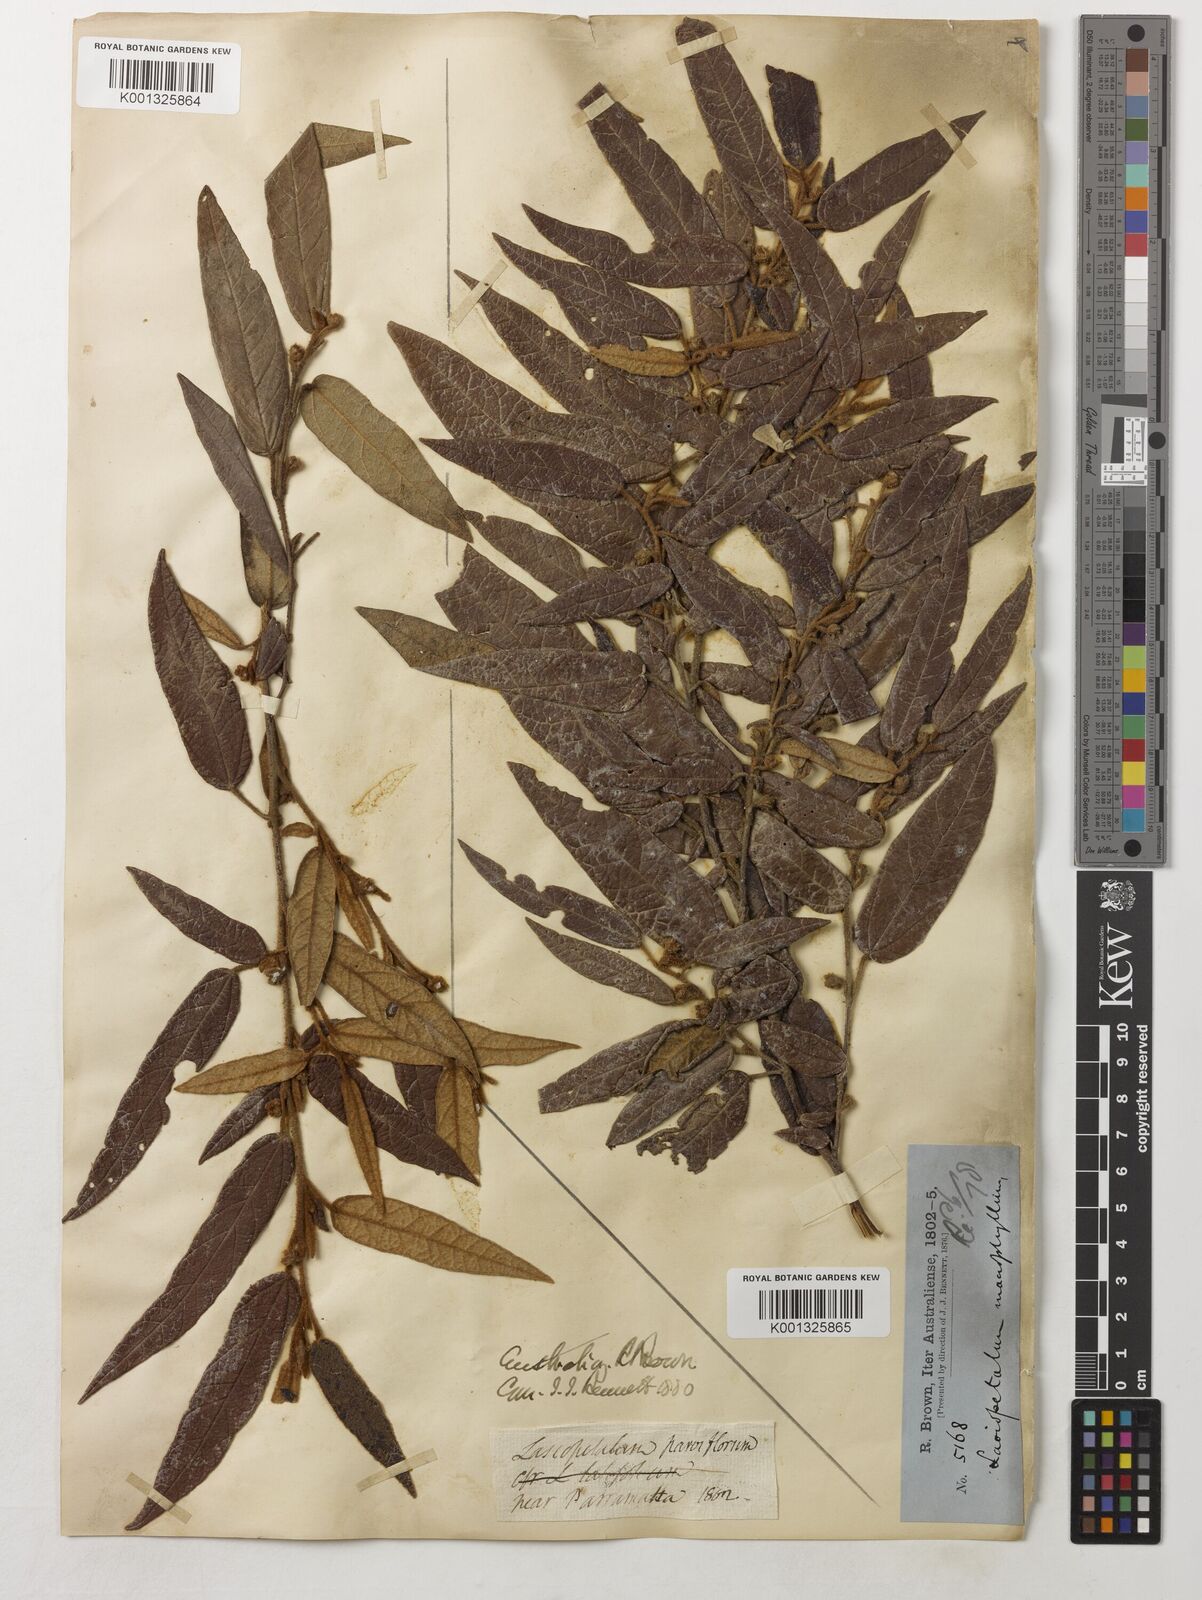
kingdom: Plantae
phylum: Tracheophyta
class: Magnoliopsida
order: Malvales
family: Malvaceae
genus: Lasiopetalum
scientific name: Lasiopetalum parviflorum
